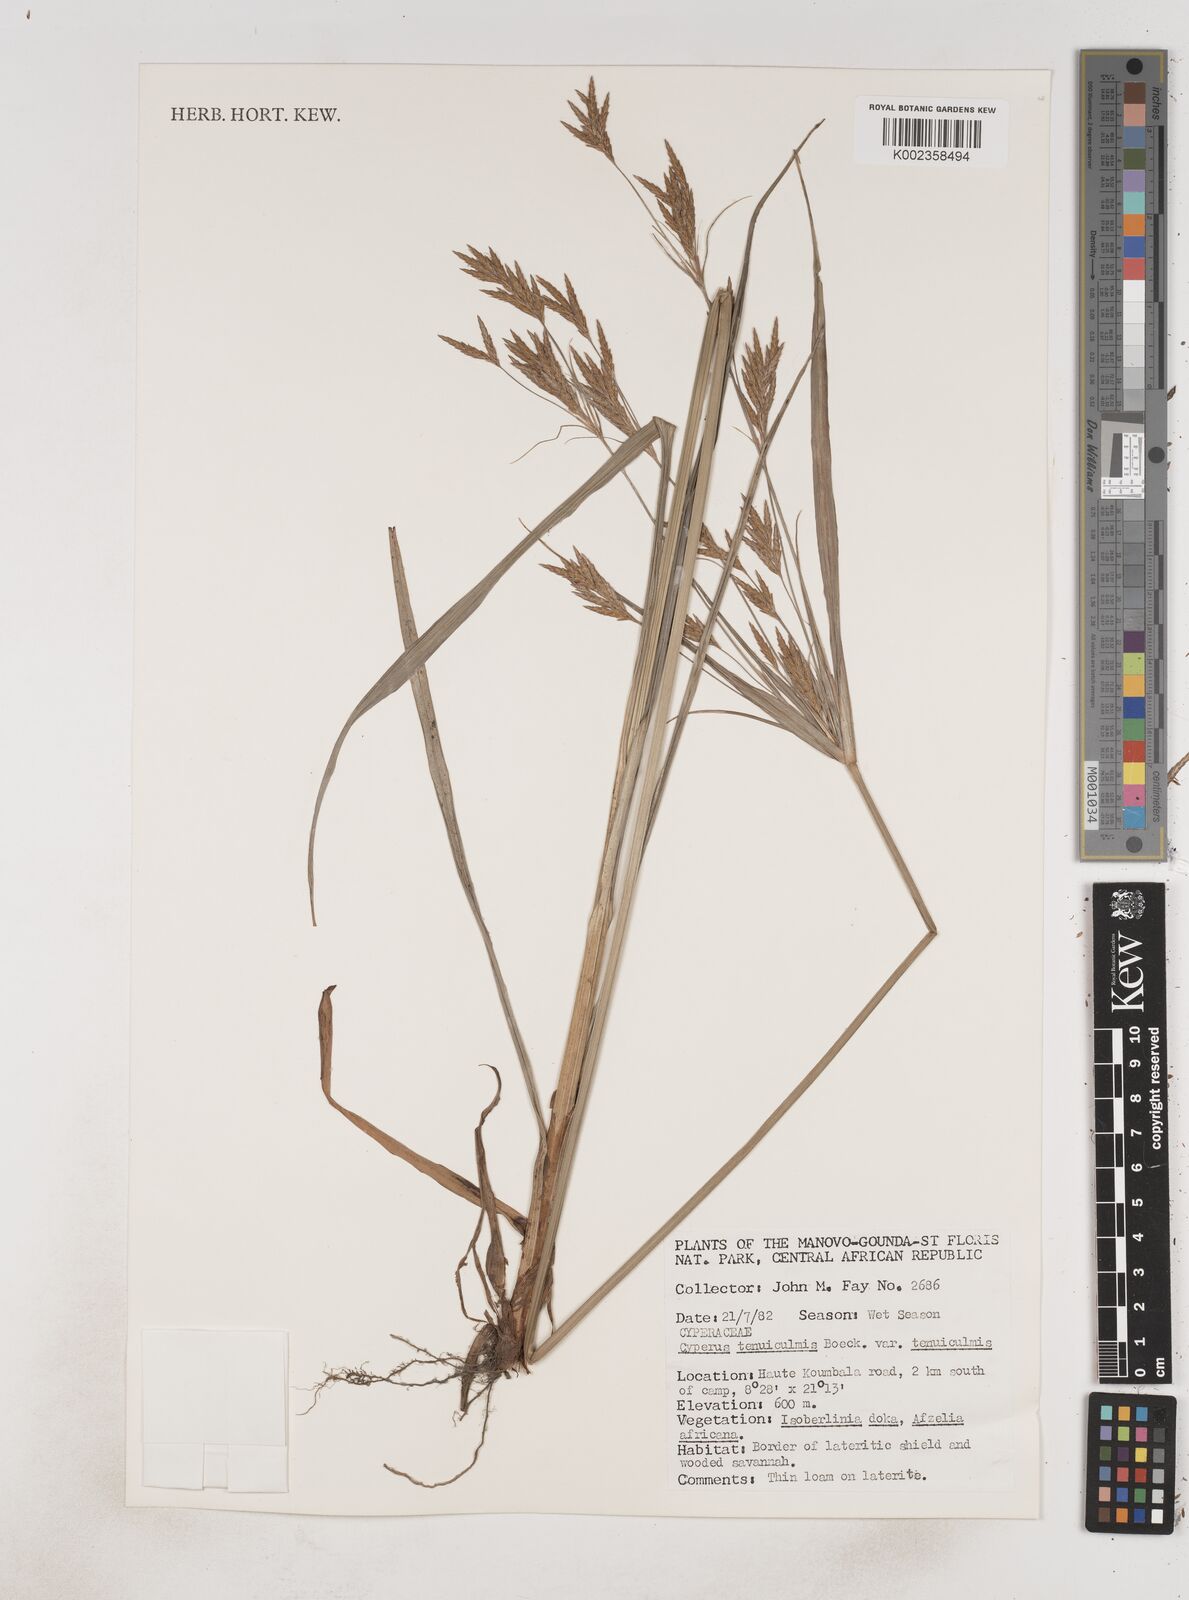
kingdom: Plantae
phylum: Tracheophyta
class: Liliopsida
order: Poales
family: Cyperaceae
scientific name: Cyperaceae
